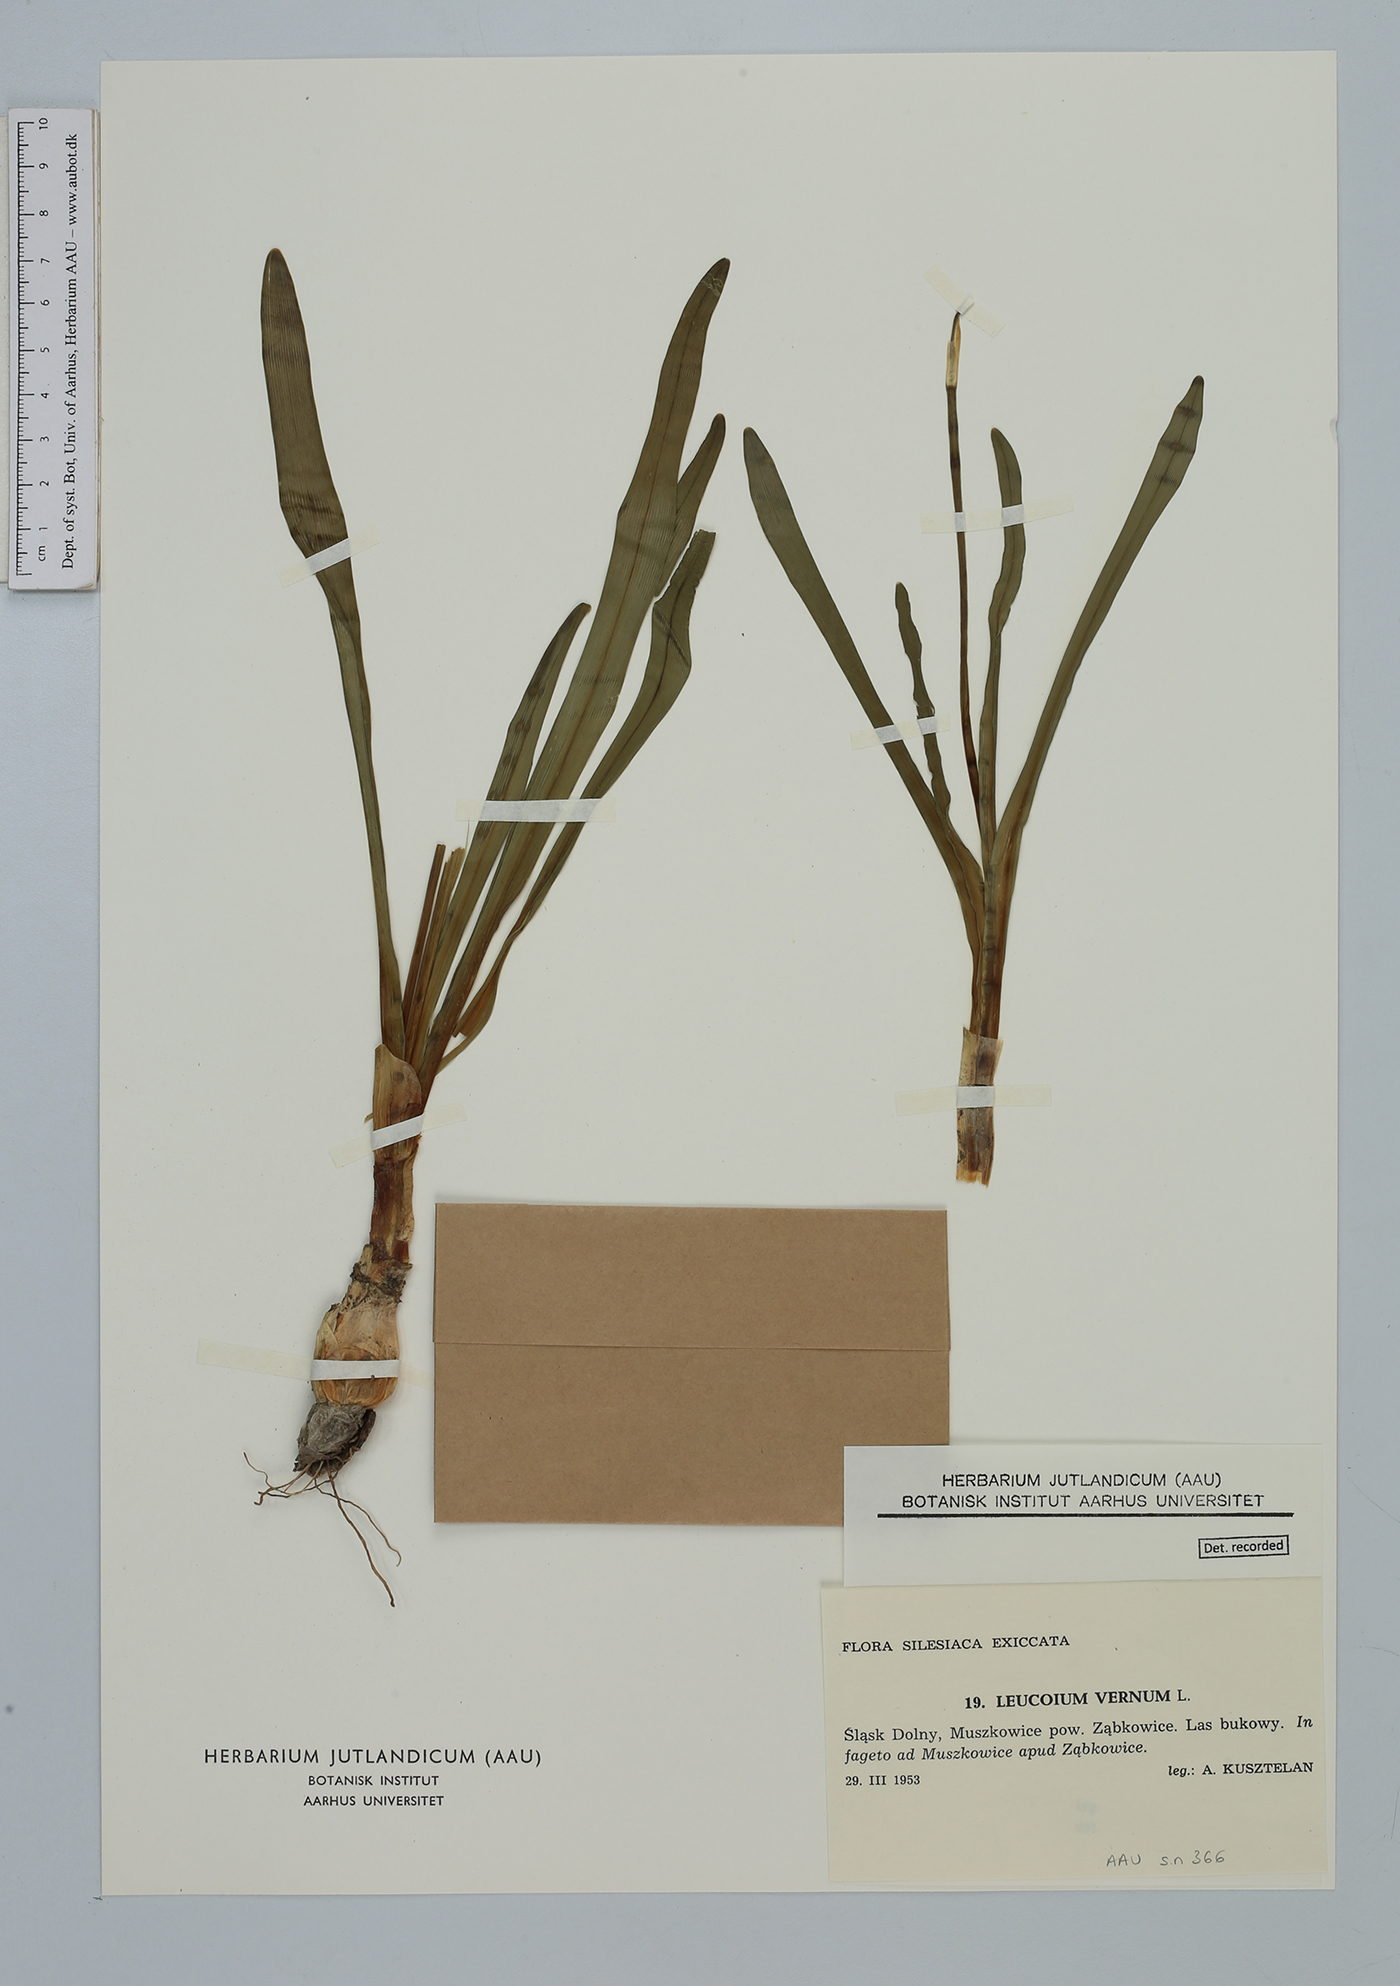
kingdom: Plantae
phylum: Tracheophyta
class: Liliopsida
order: Asparagales
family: Amaryllidaceae
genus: Leucojum
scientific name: Leucojum vernum
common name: Spring snowflake
